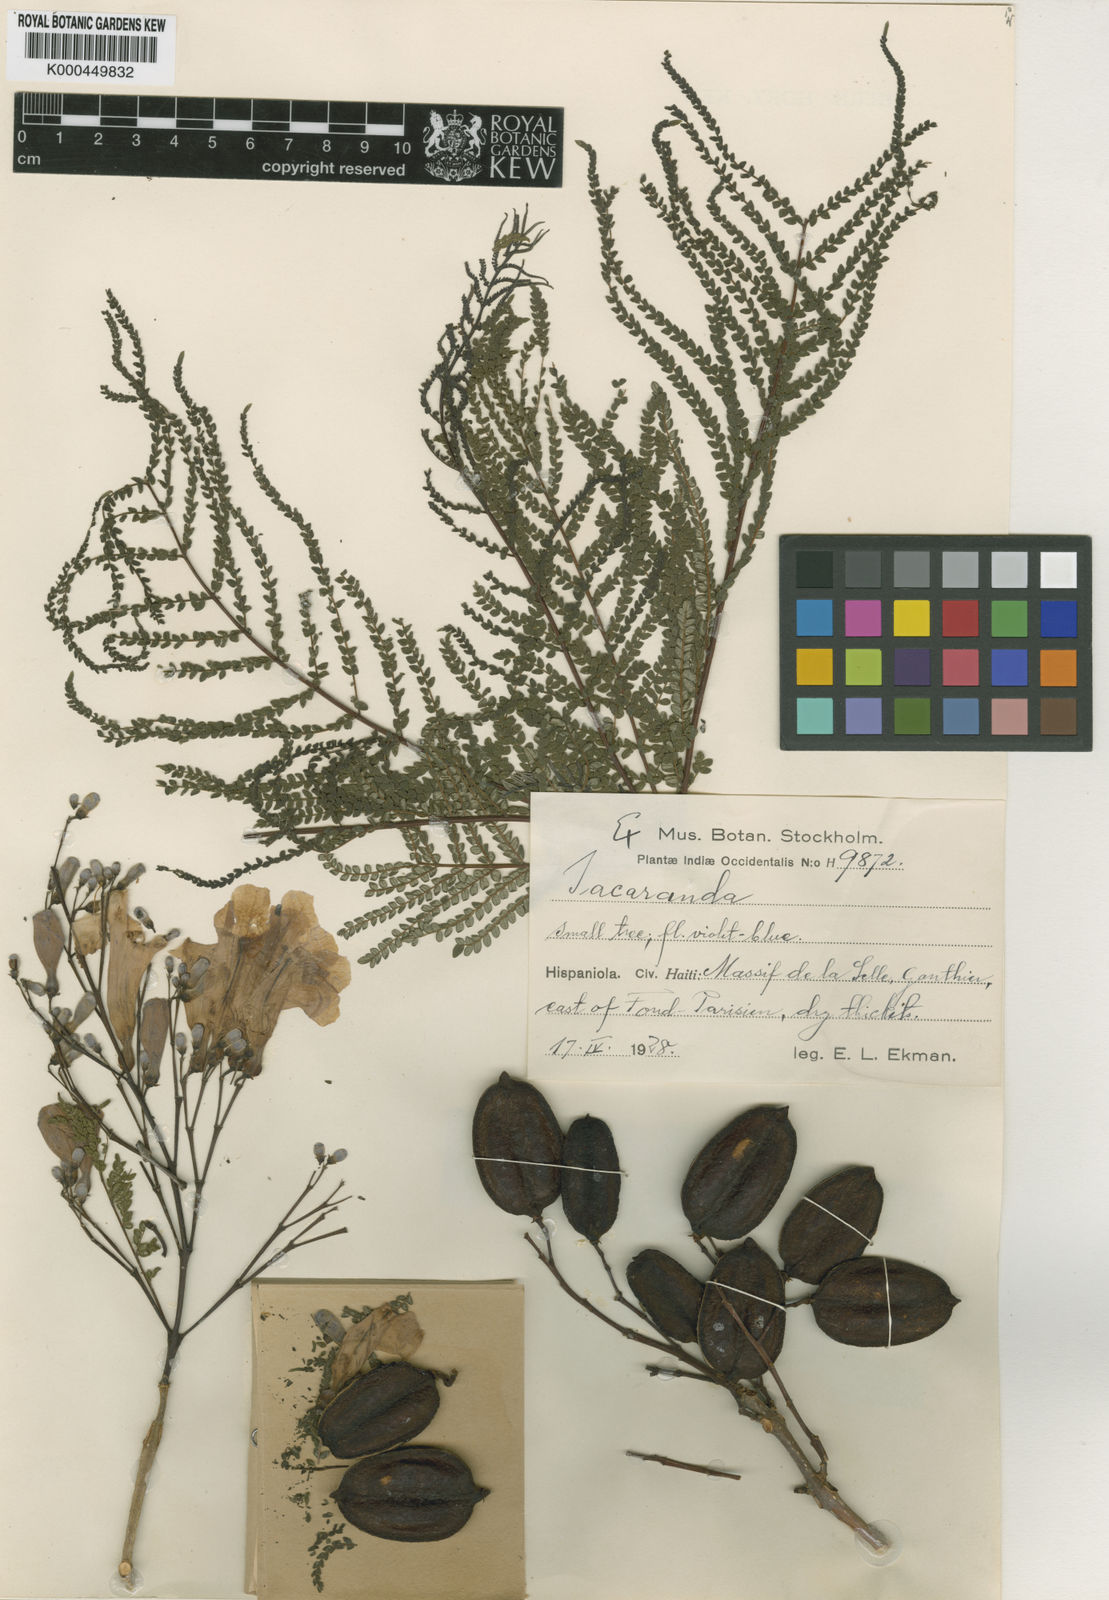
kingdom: Plantae
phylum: Tracheophyta
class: Magnoliopsida
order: Lamiales
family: Bignoniaceae
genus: Jacaranda
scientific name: Jacaranda selleana
